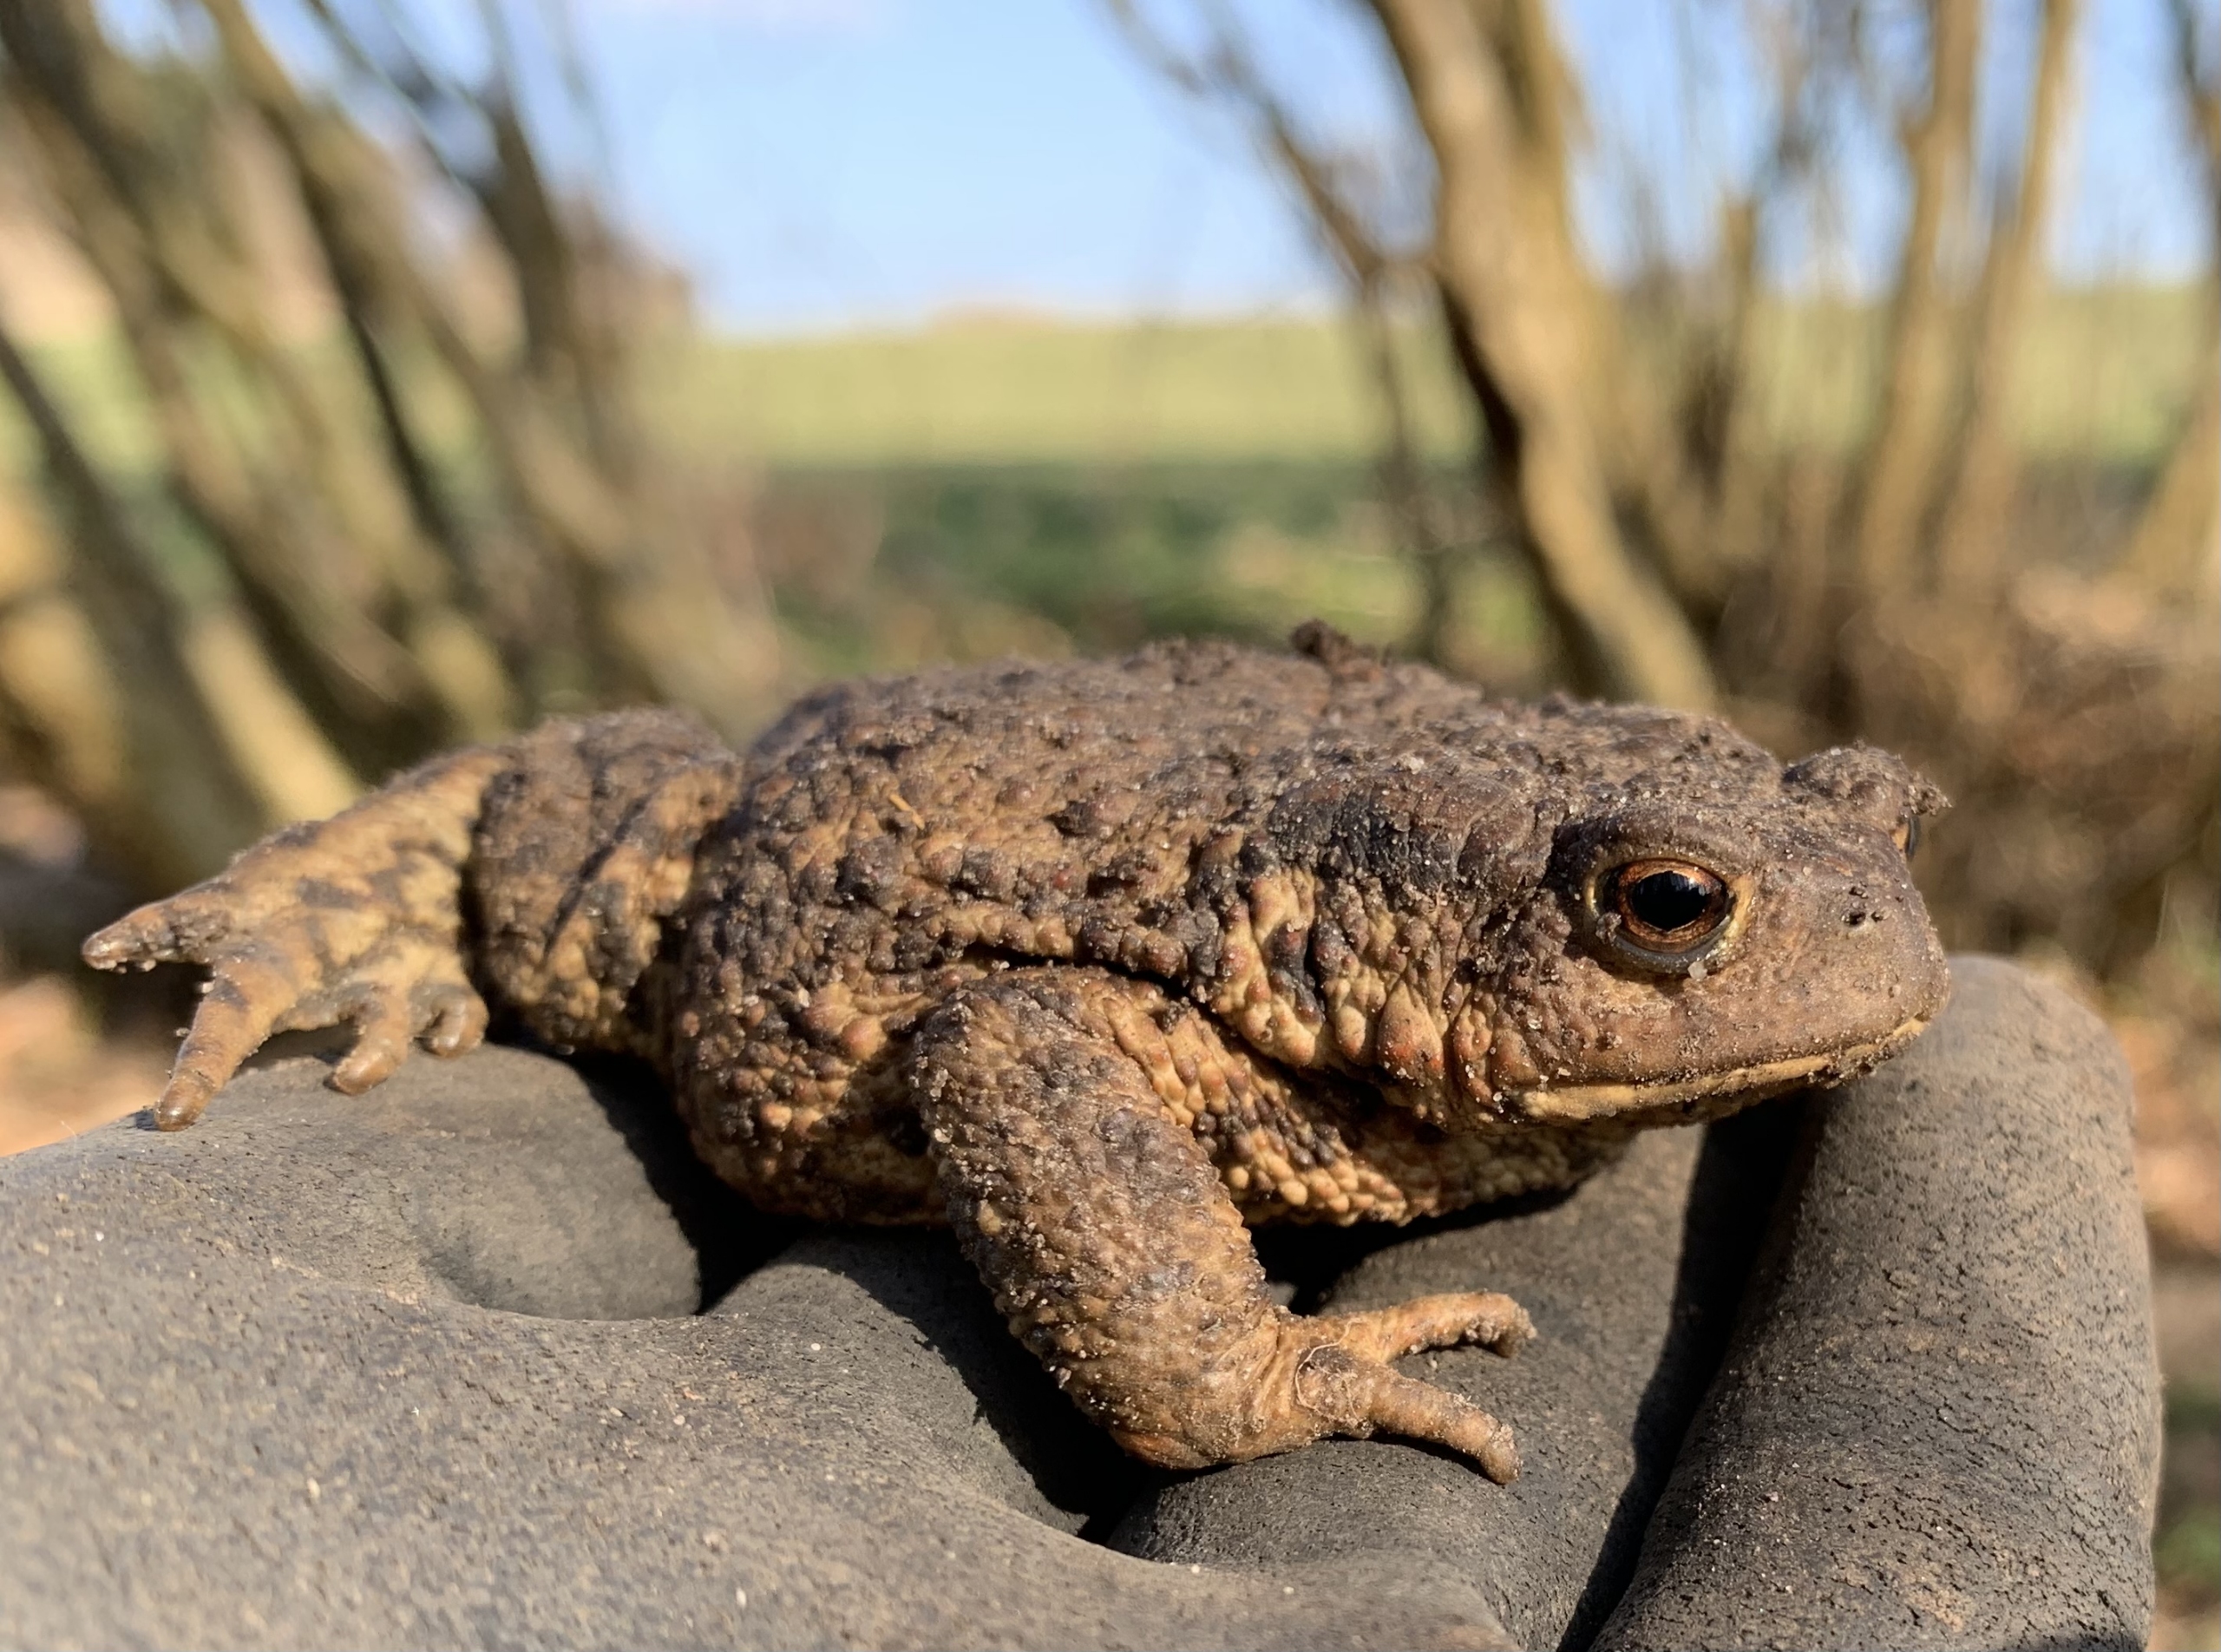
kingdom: Animalia
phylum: Chordata
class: Amphibia
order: Anura
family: Bufonidae
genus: Bufo
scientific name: Bufo bufo
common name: Skrubtudse
